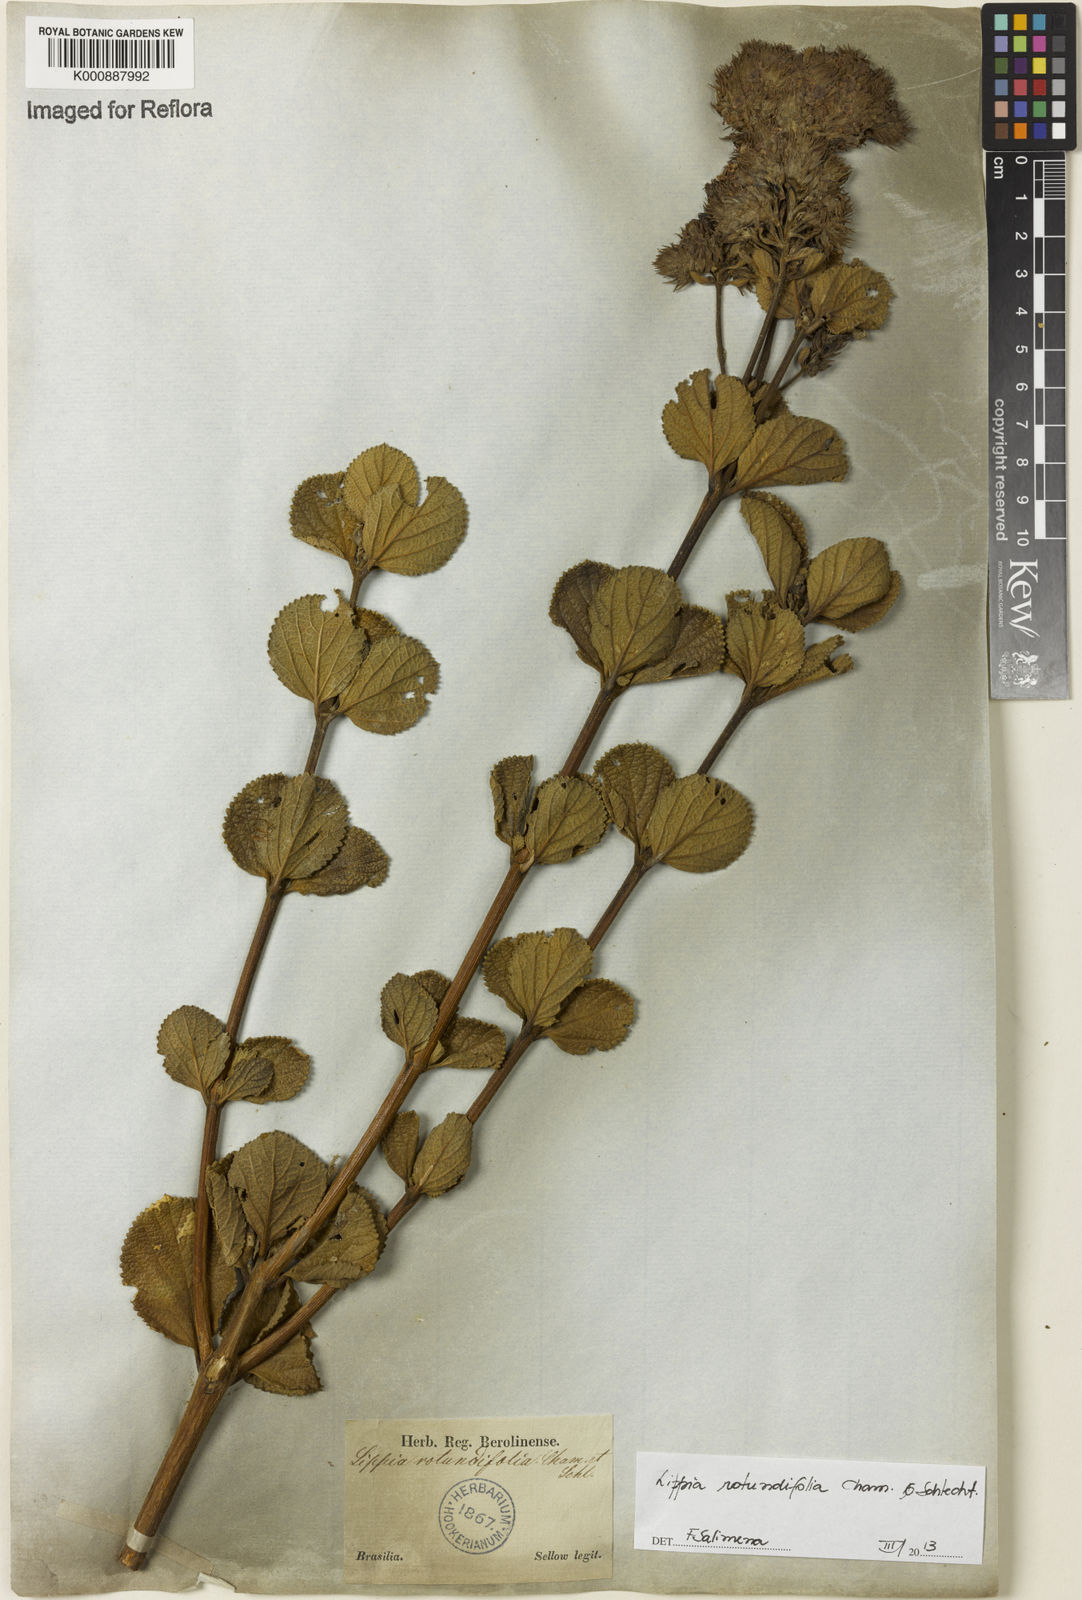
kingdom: Plantae
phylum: Tracheophyta
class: Magnoliopsida
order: Lamiales
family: Verbenaceae
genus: Lippia
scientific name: Lippia rotundifolia
